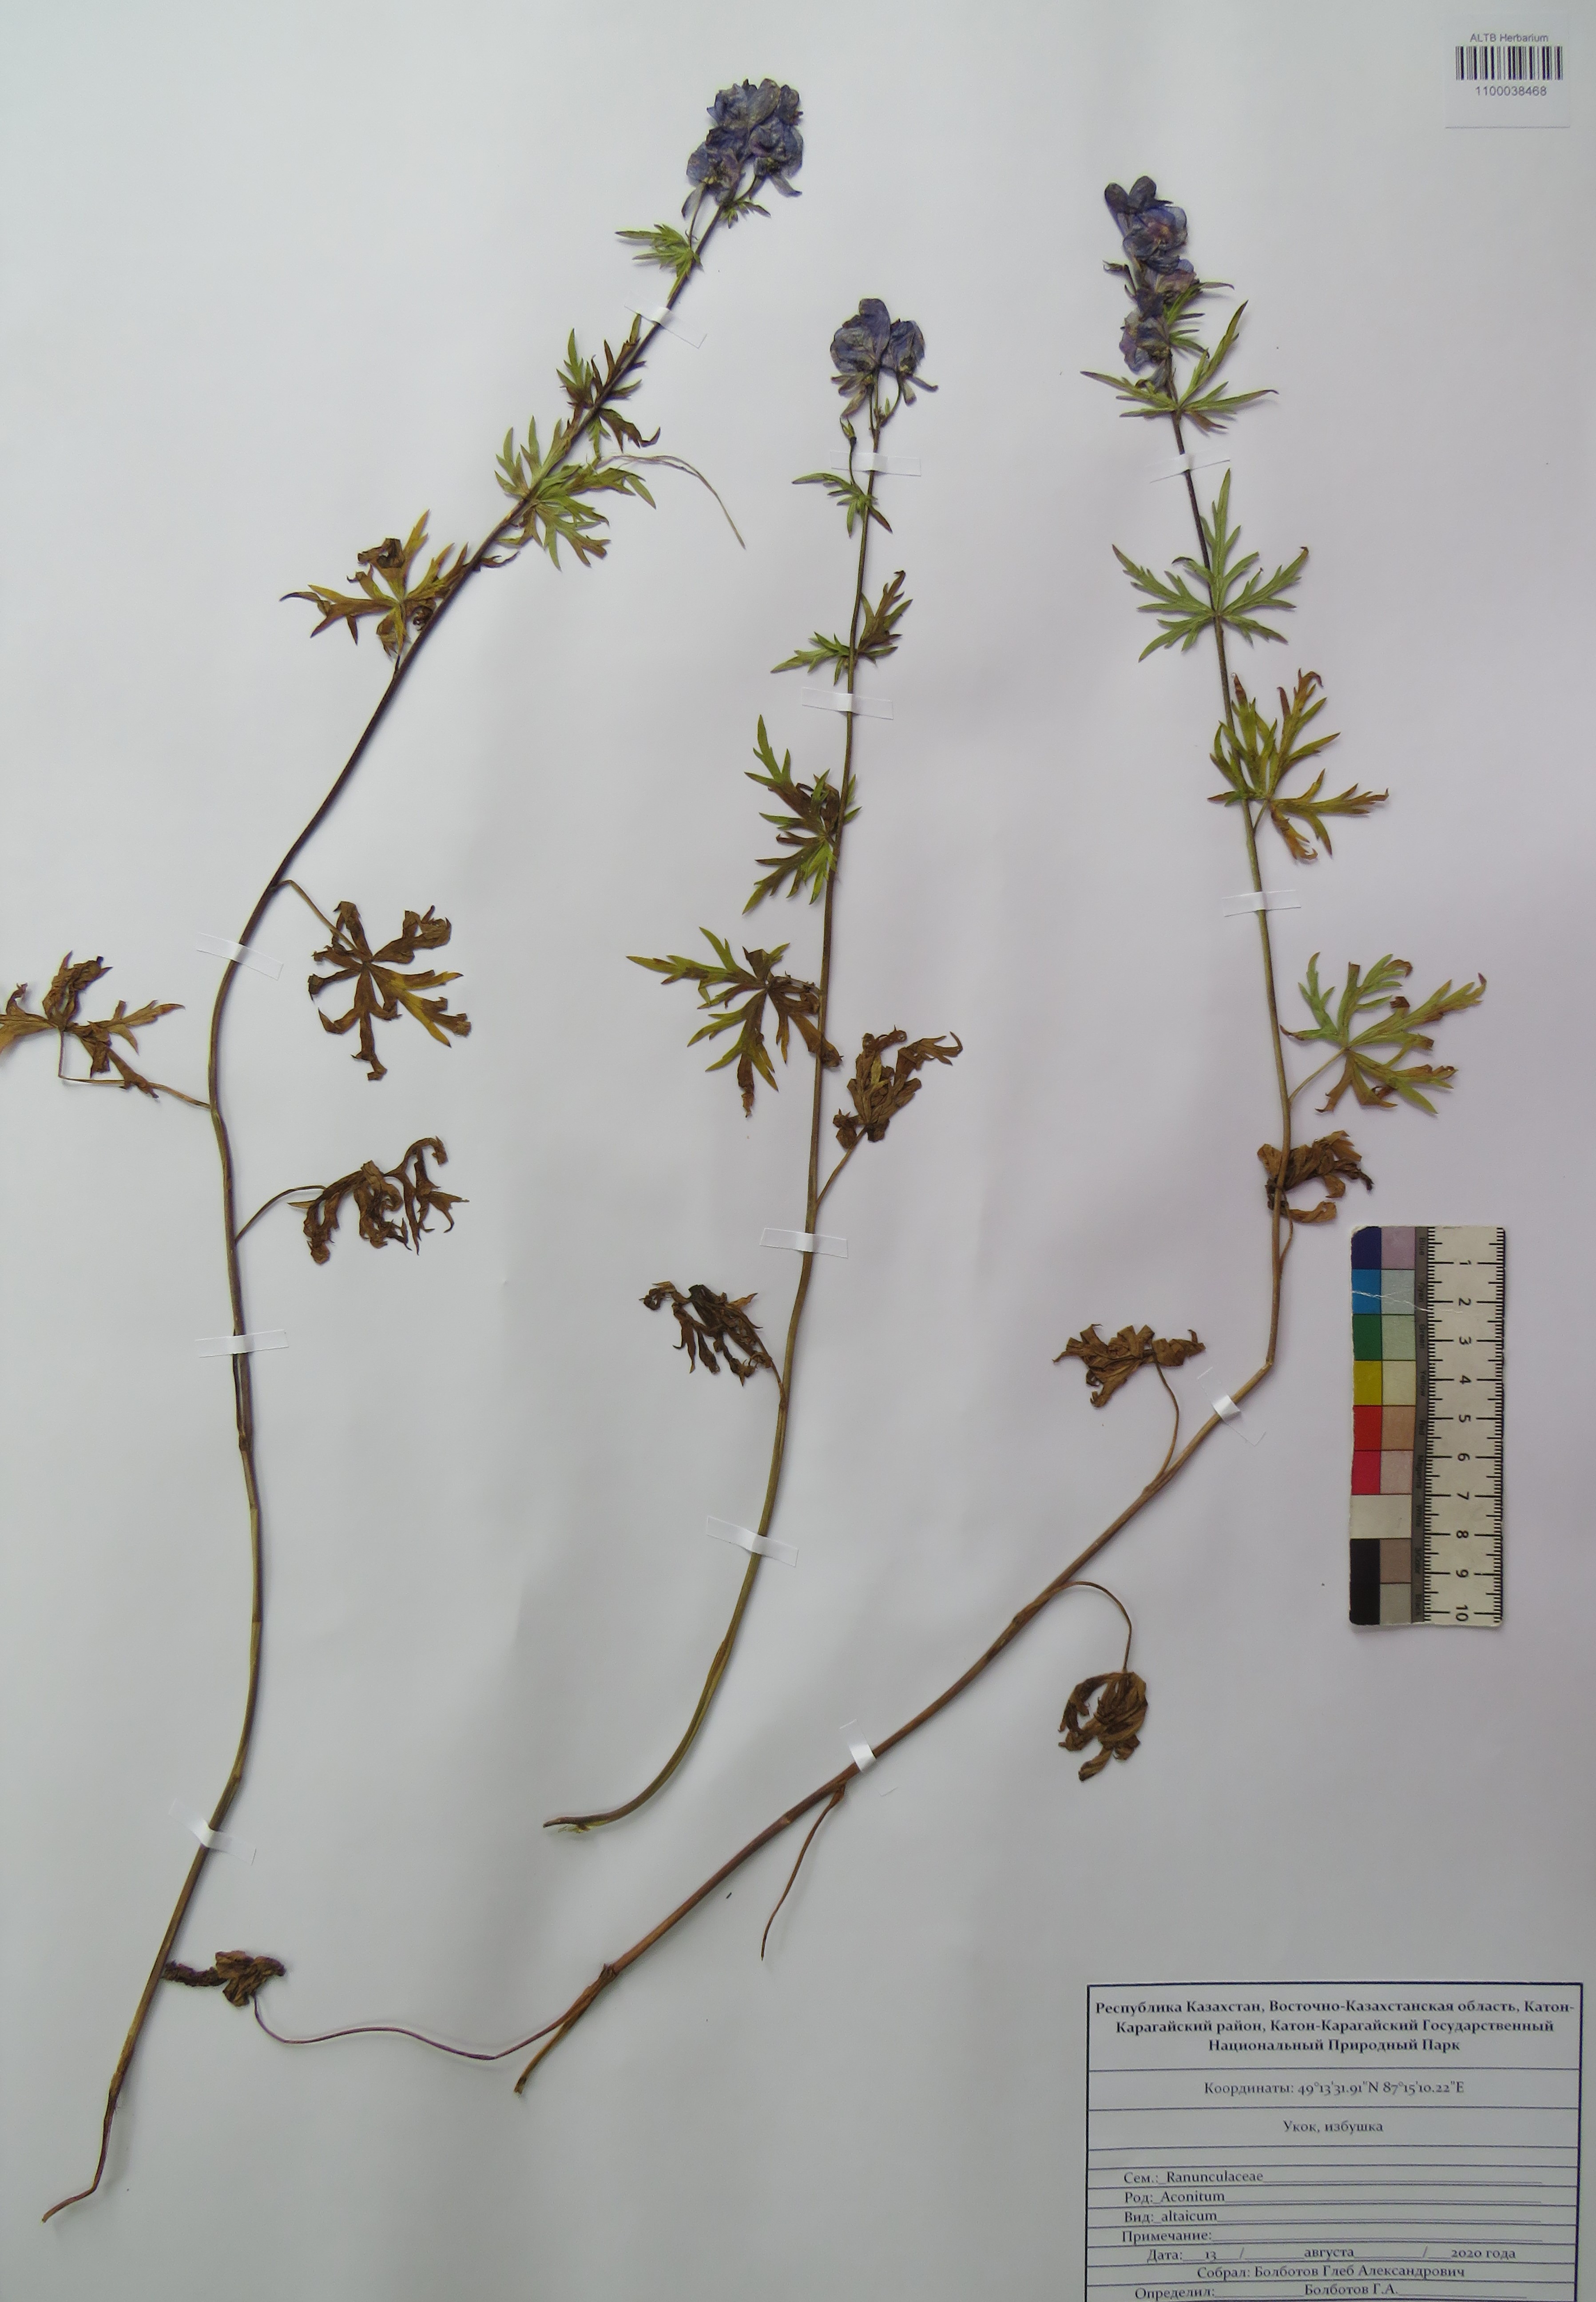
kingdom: Plantae
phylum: Tracheophyta
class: Magnoliopsida
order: Ranunculales
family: Ranunculaceae
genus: Aconitum
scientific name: Aconitum glandulosum
